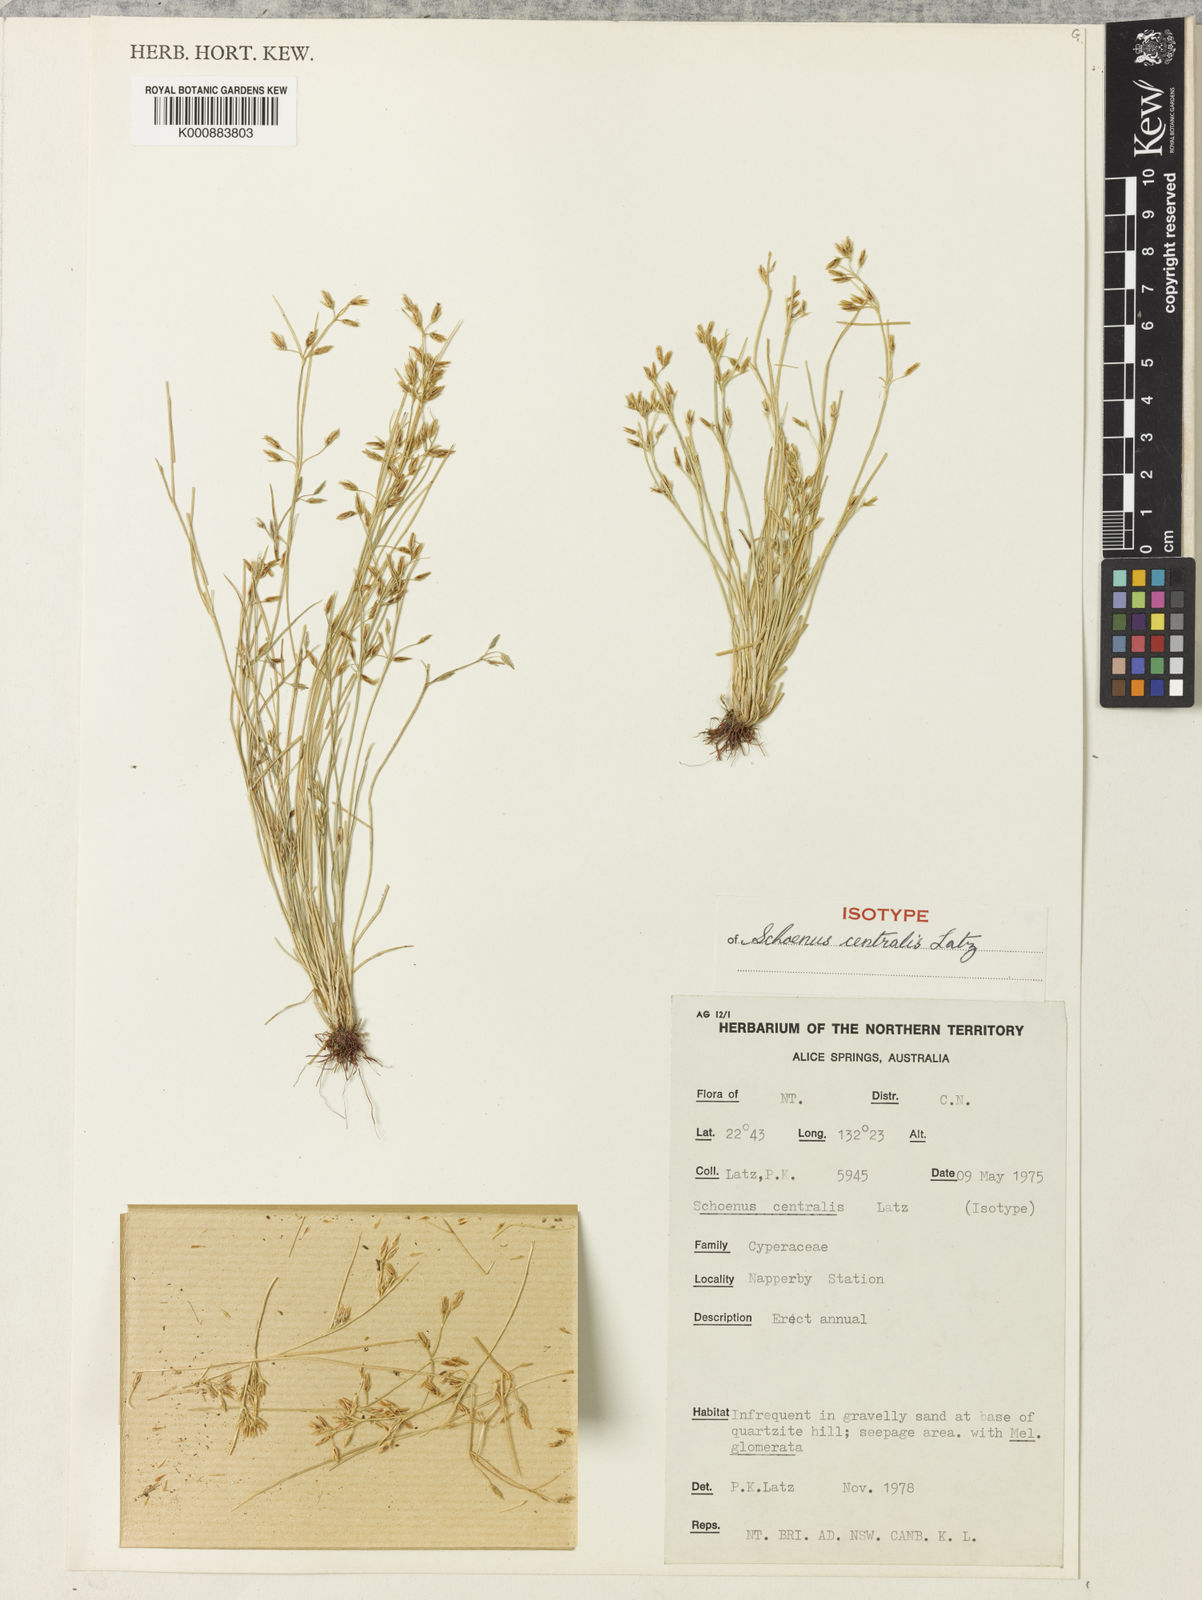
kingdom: Plantae
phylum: Tracheophyta
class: Liliopsida
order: Poales
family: Cyperaceae
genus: Schoenus
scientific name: Schoenus centralis
